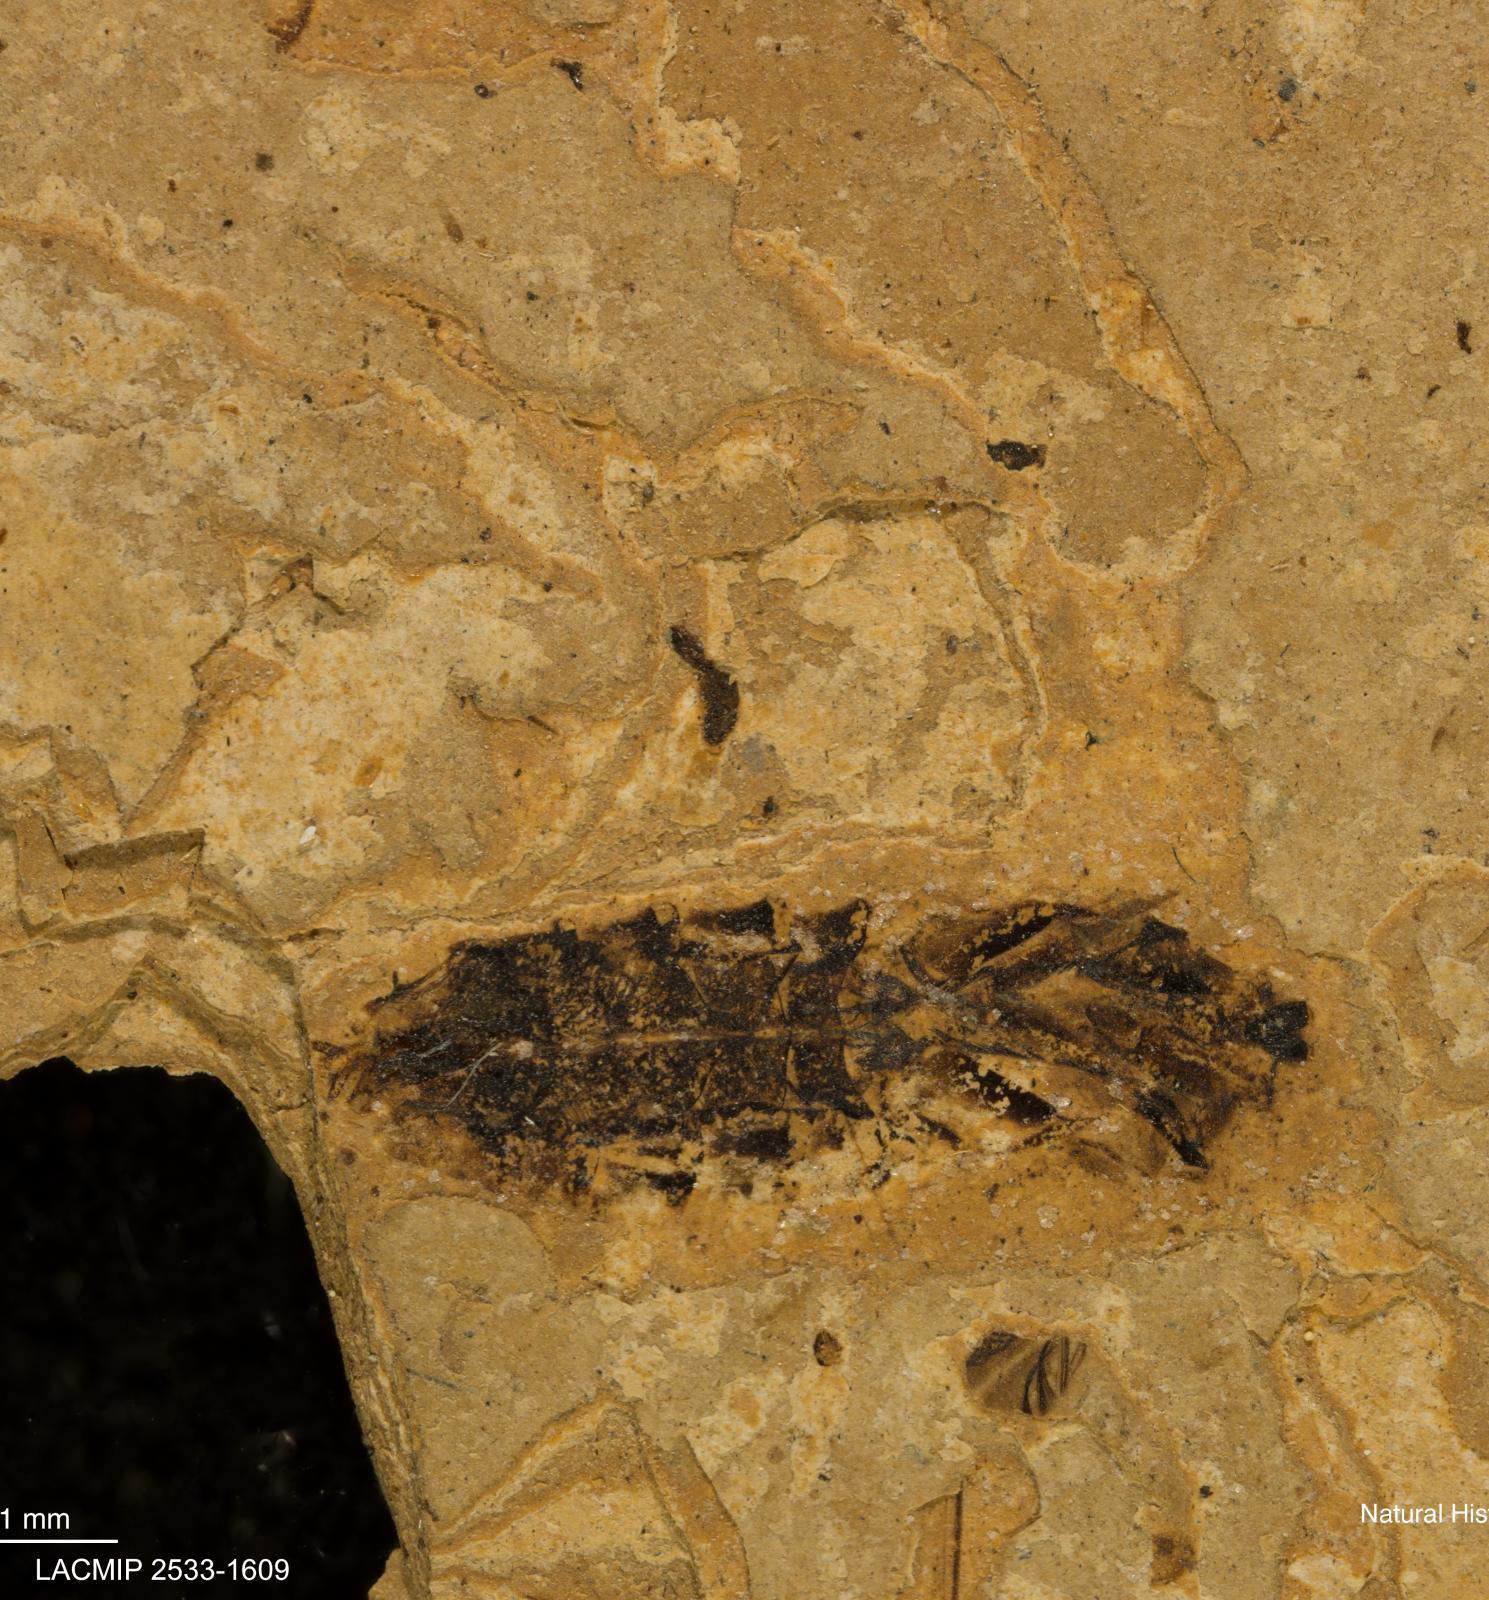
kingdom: Animalia
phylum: Arthropoda
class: Insecta
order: Hemiptera
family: Notonectidae
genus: Notonecta
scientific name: Notonecta
